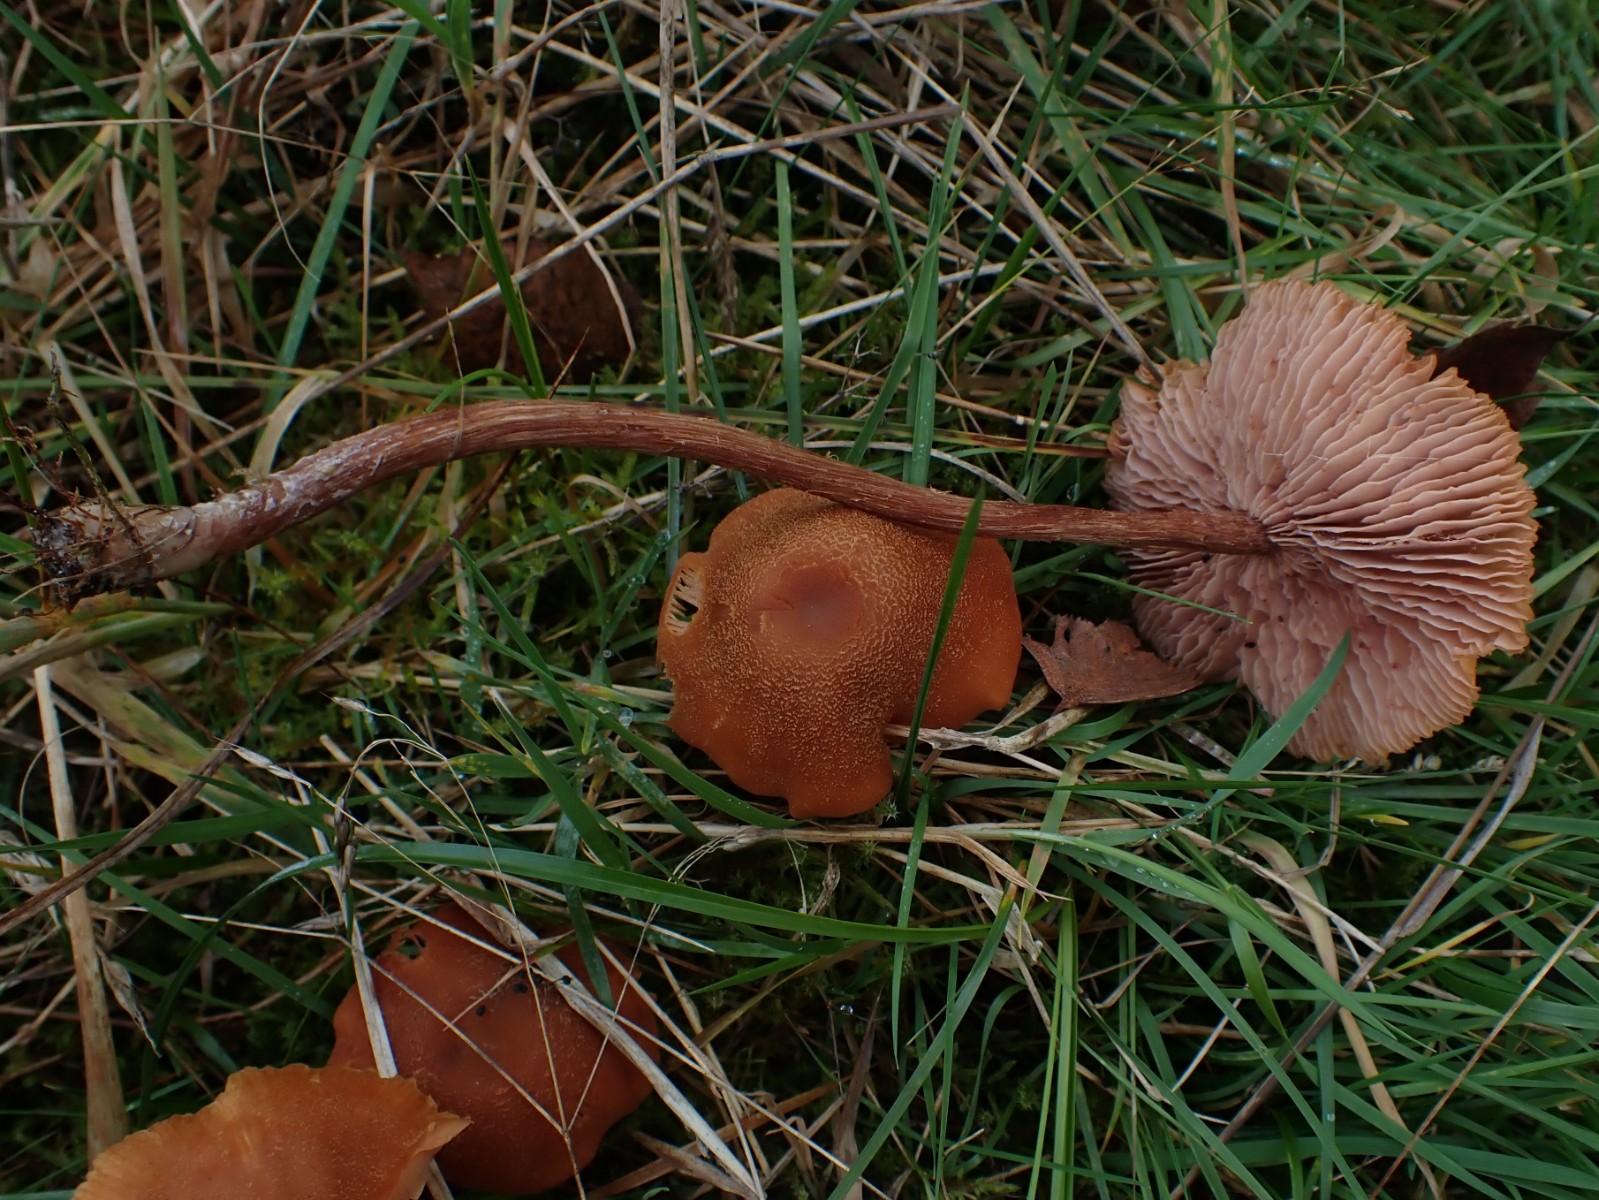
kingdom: Fungi
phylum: Basidiomycota
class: Agaricomycetes
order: Agaricales
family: Hydnangiaceae
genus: Laccaria
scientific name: Laccaria bicolor
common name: tvefarvet ametysthat
